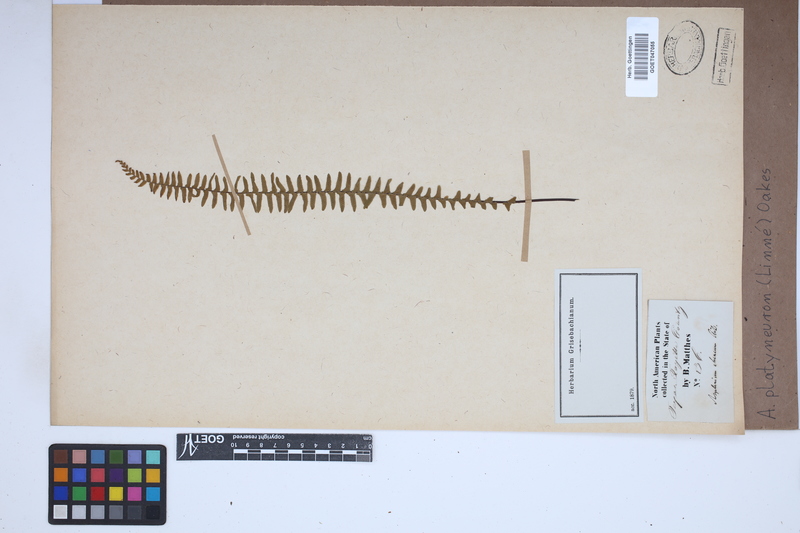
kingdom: Plantae
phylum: Tracheophyta
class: Polypodiopsida
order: Polypodiales
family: Aspleniaceae
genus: Asplenium
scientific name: Asplenium platyneuron
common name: Ebony spleenwort
